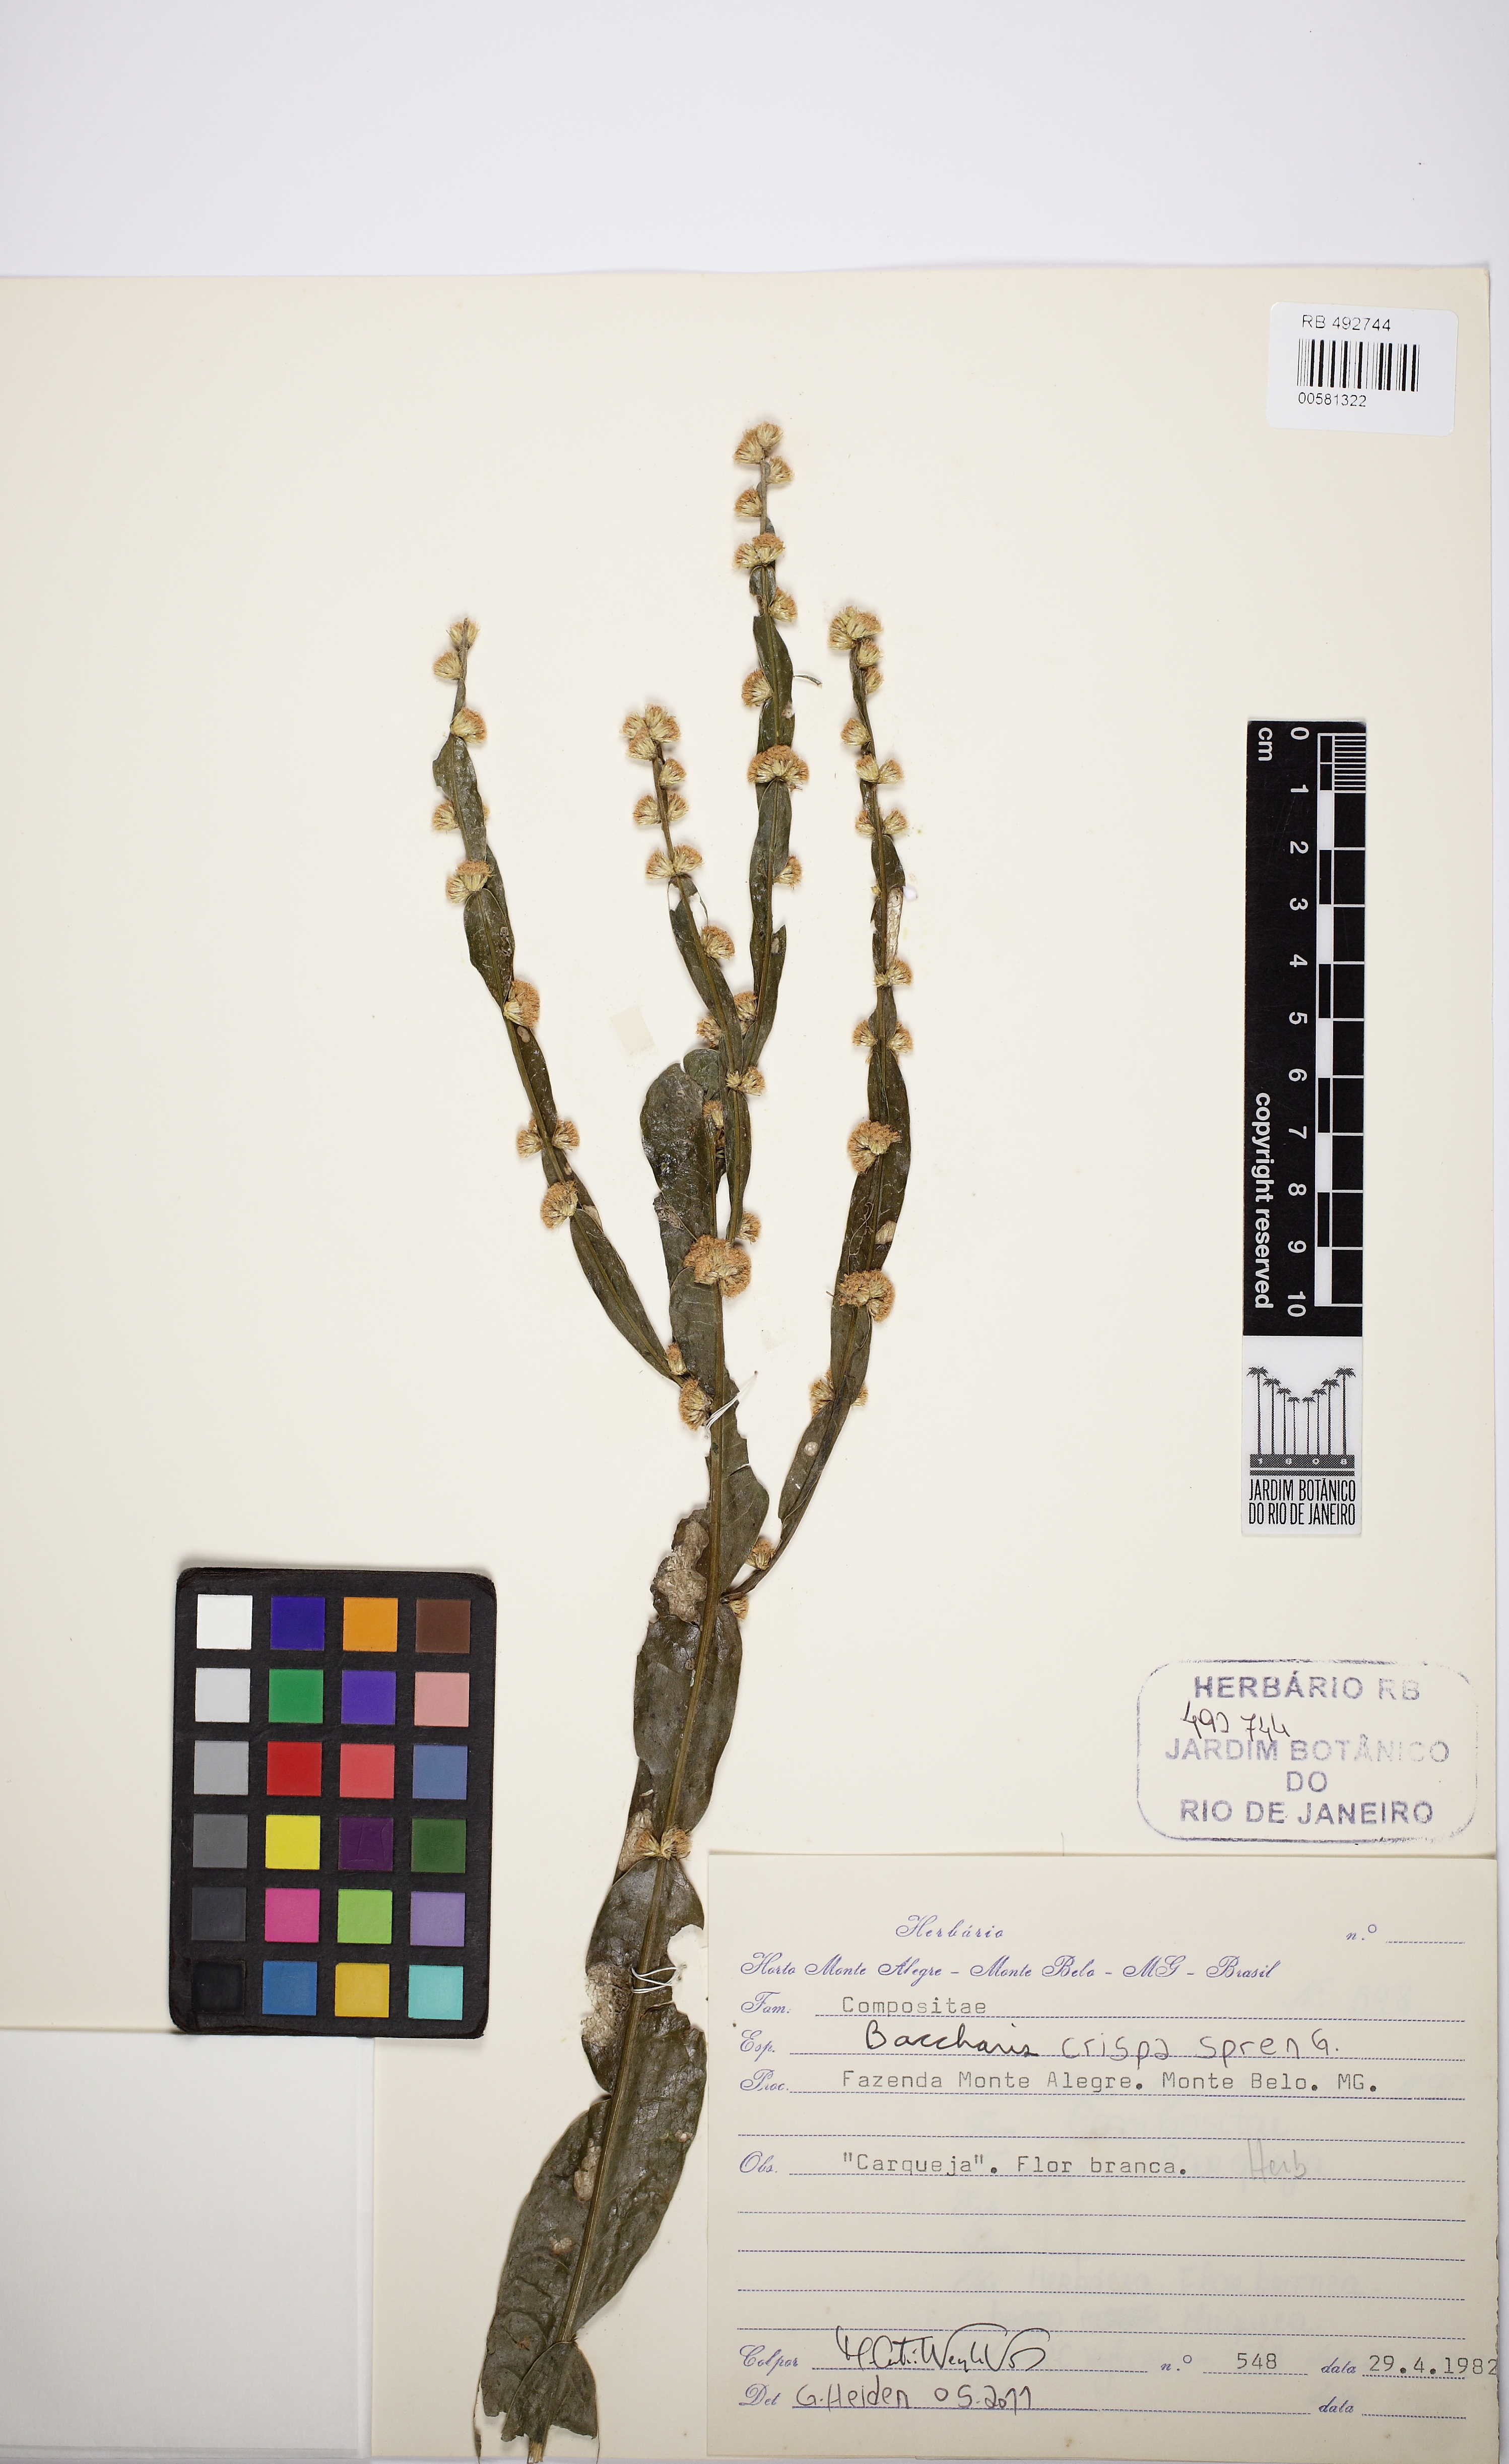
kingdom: Plantae
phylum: Tracheophyta
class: Magnoliopsida
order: Asterales
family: Asteraceae
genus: Baccharis
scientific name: Baccharis crispa
